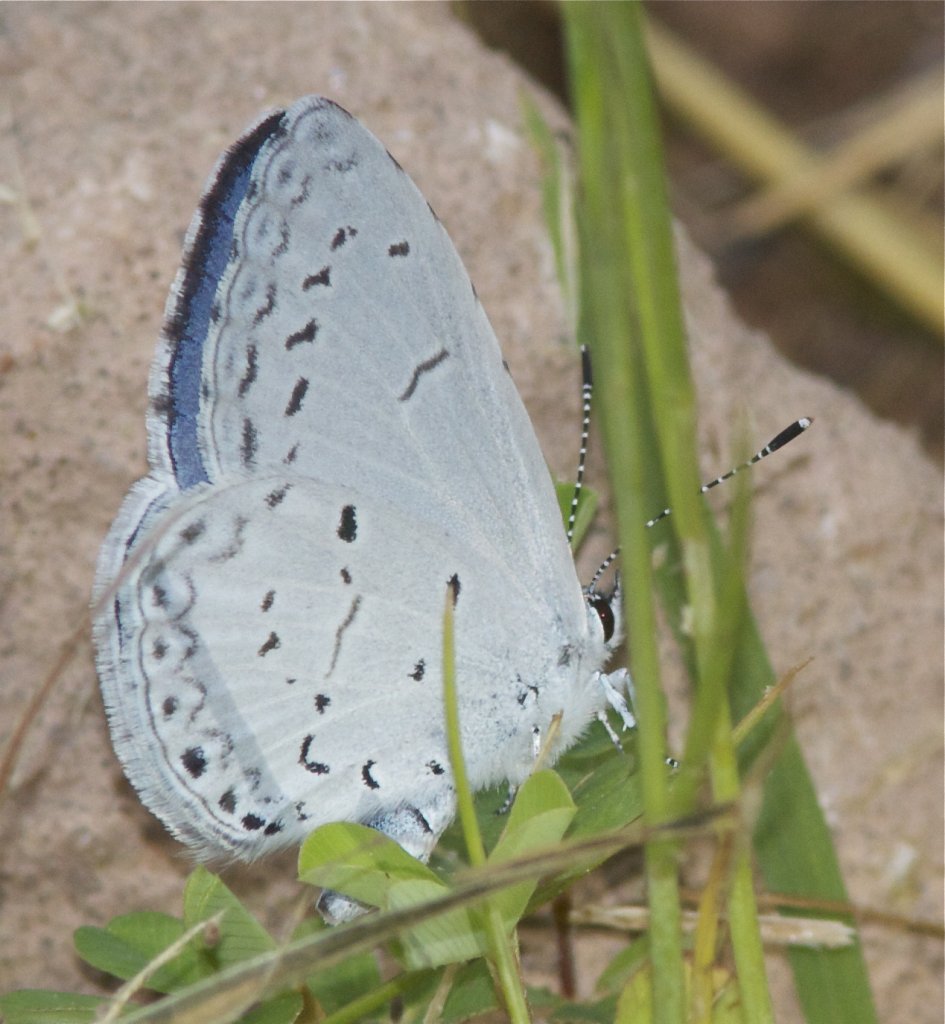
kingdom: Animalia
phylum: Arthropoda
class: Insecta
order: Lepidoptera
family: Lycaenidae
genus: Cyaniris
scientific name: Cyaniris neglecta
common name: Summer Azure
